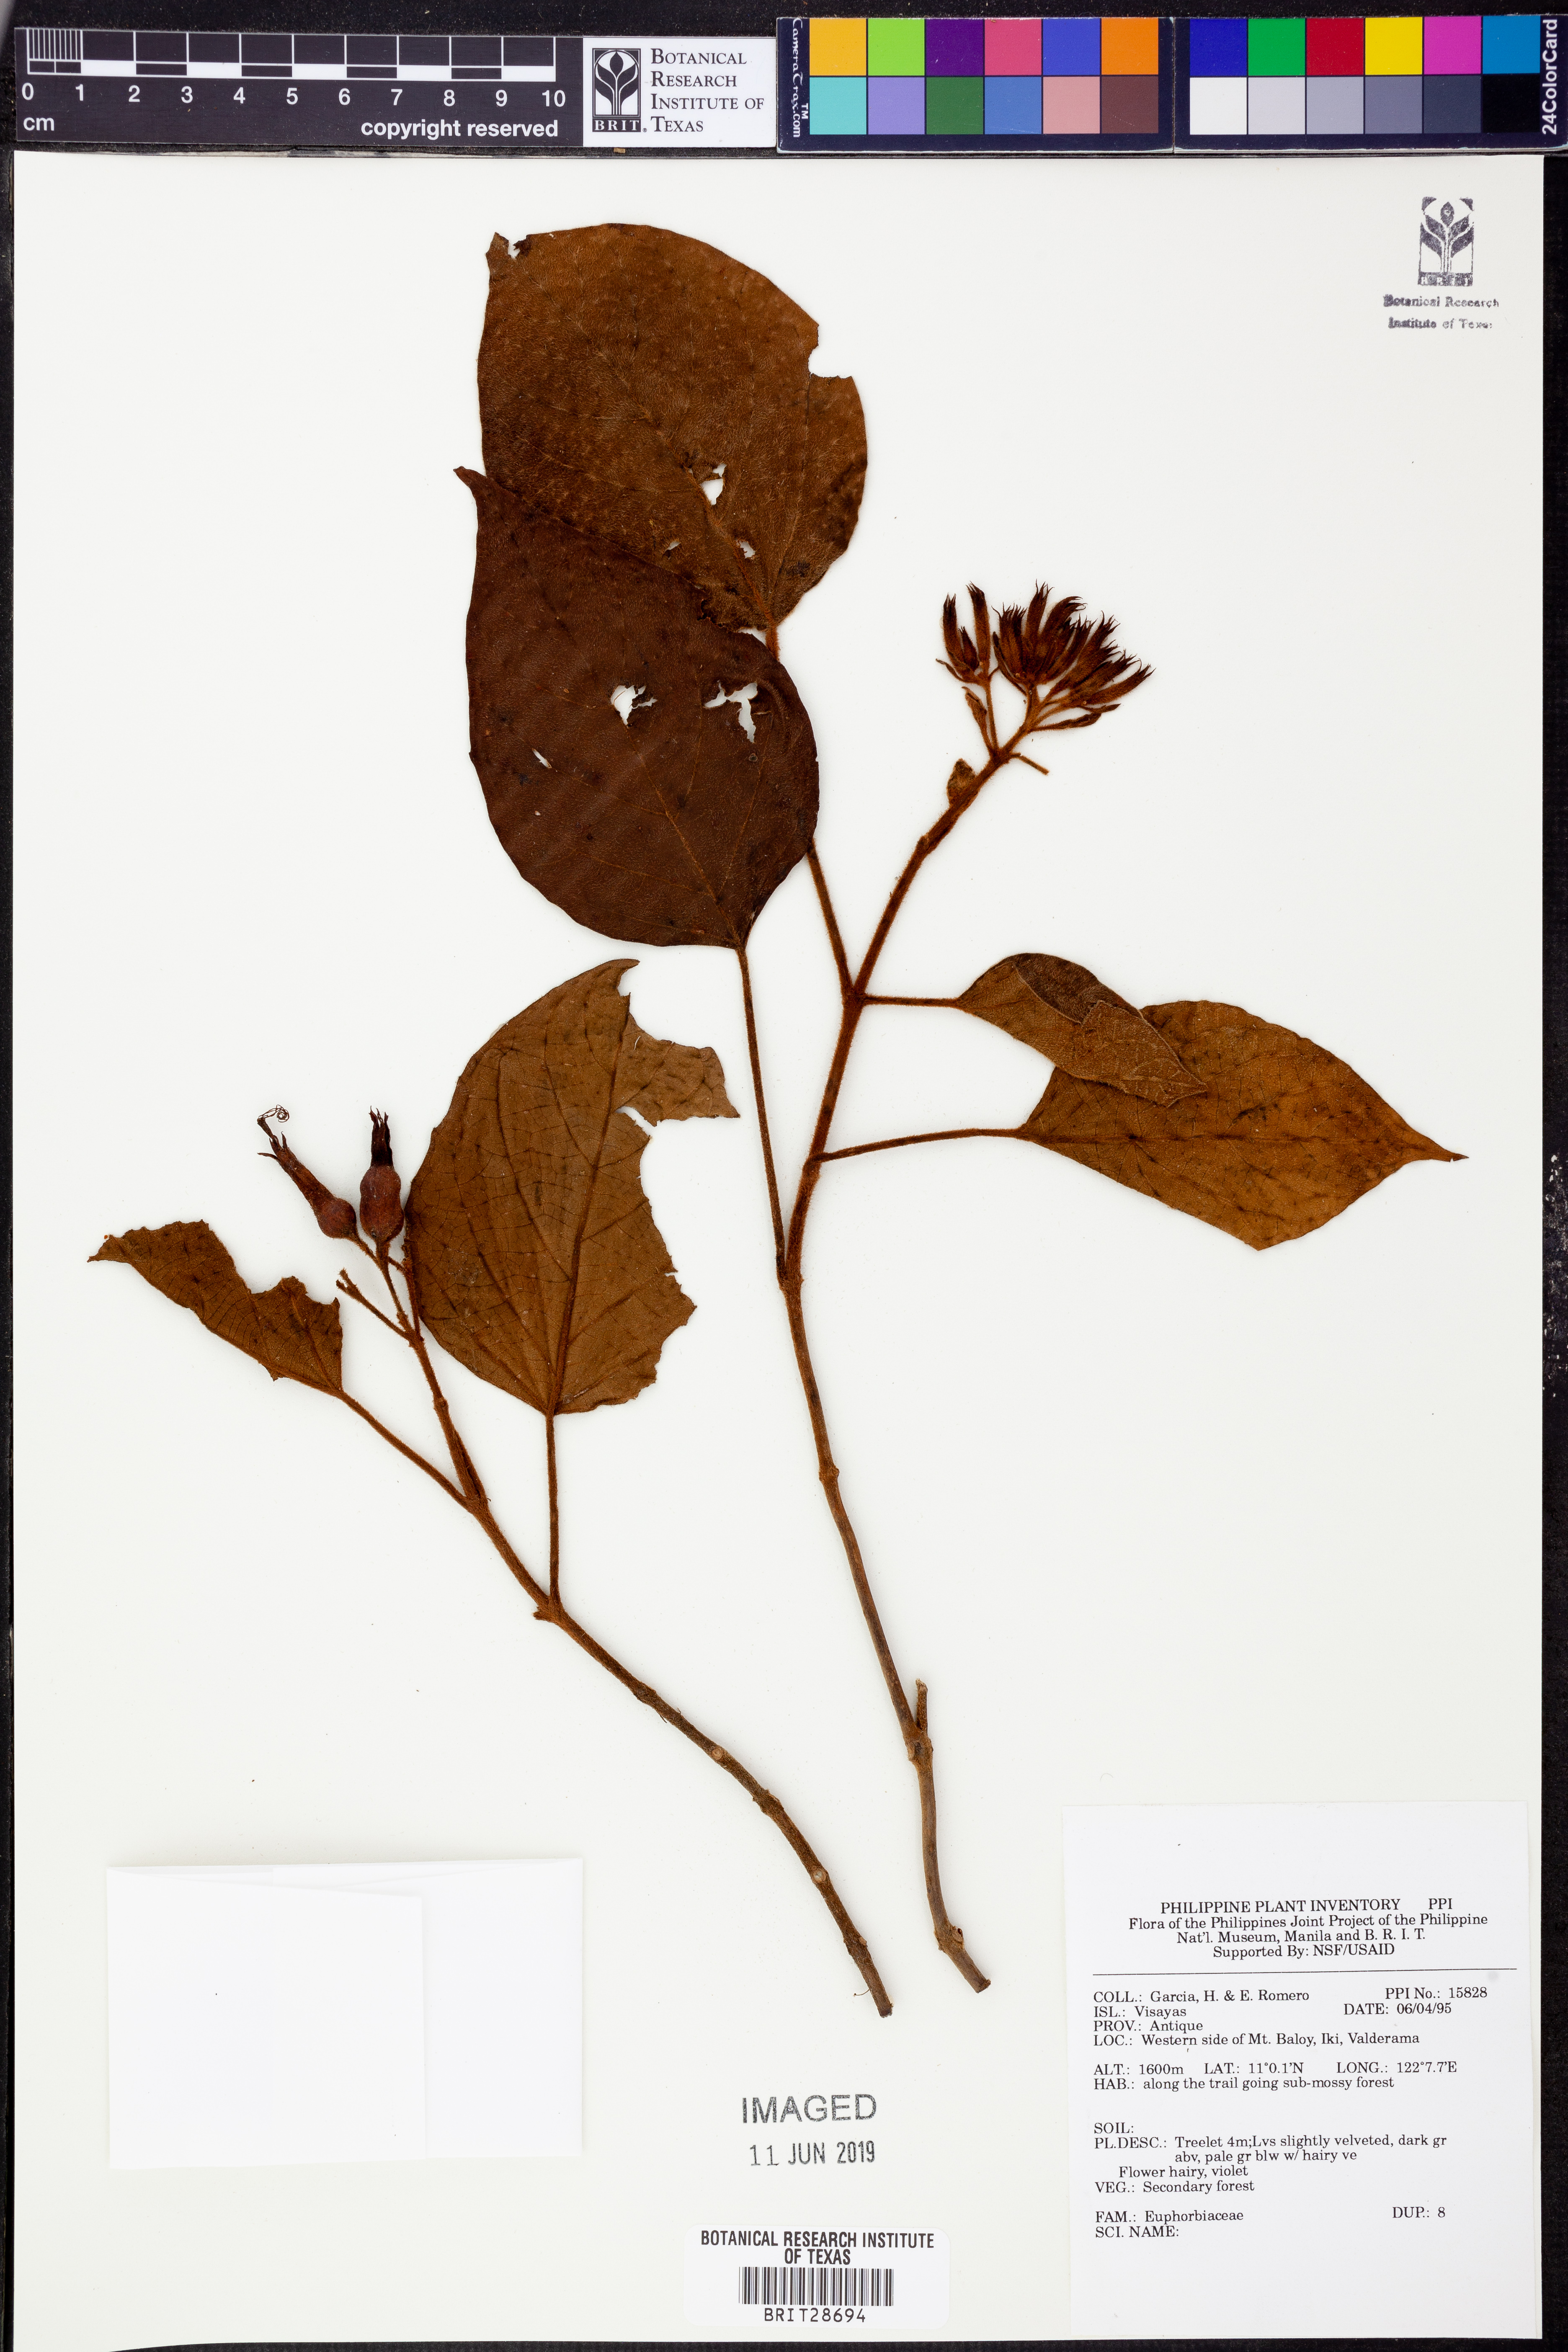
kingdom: Plantae
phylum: Tracheophyta
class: Magnoliopsida
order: Malpighiales
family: Euphorbiaceae
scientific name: Euphorbiaceae
